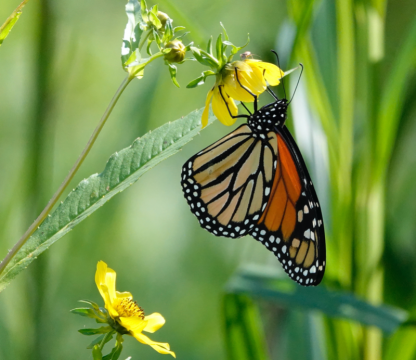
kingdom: Animalia
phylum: Arthropoda
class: Insecta
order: Lepidoptera
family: Nymphalidae
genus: Danaus
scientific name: Danaus plexippus
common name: Monarch
